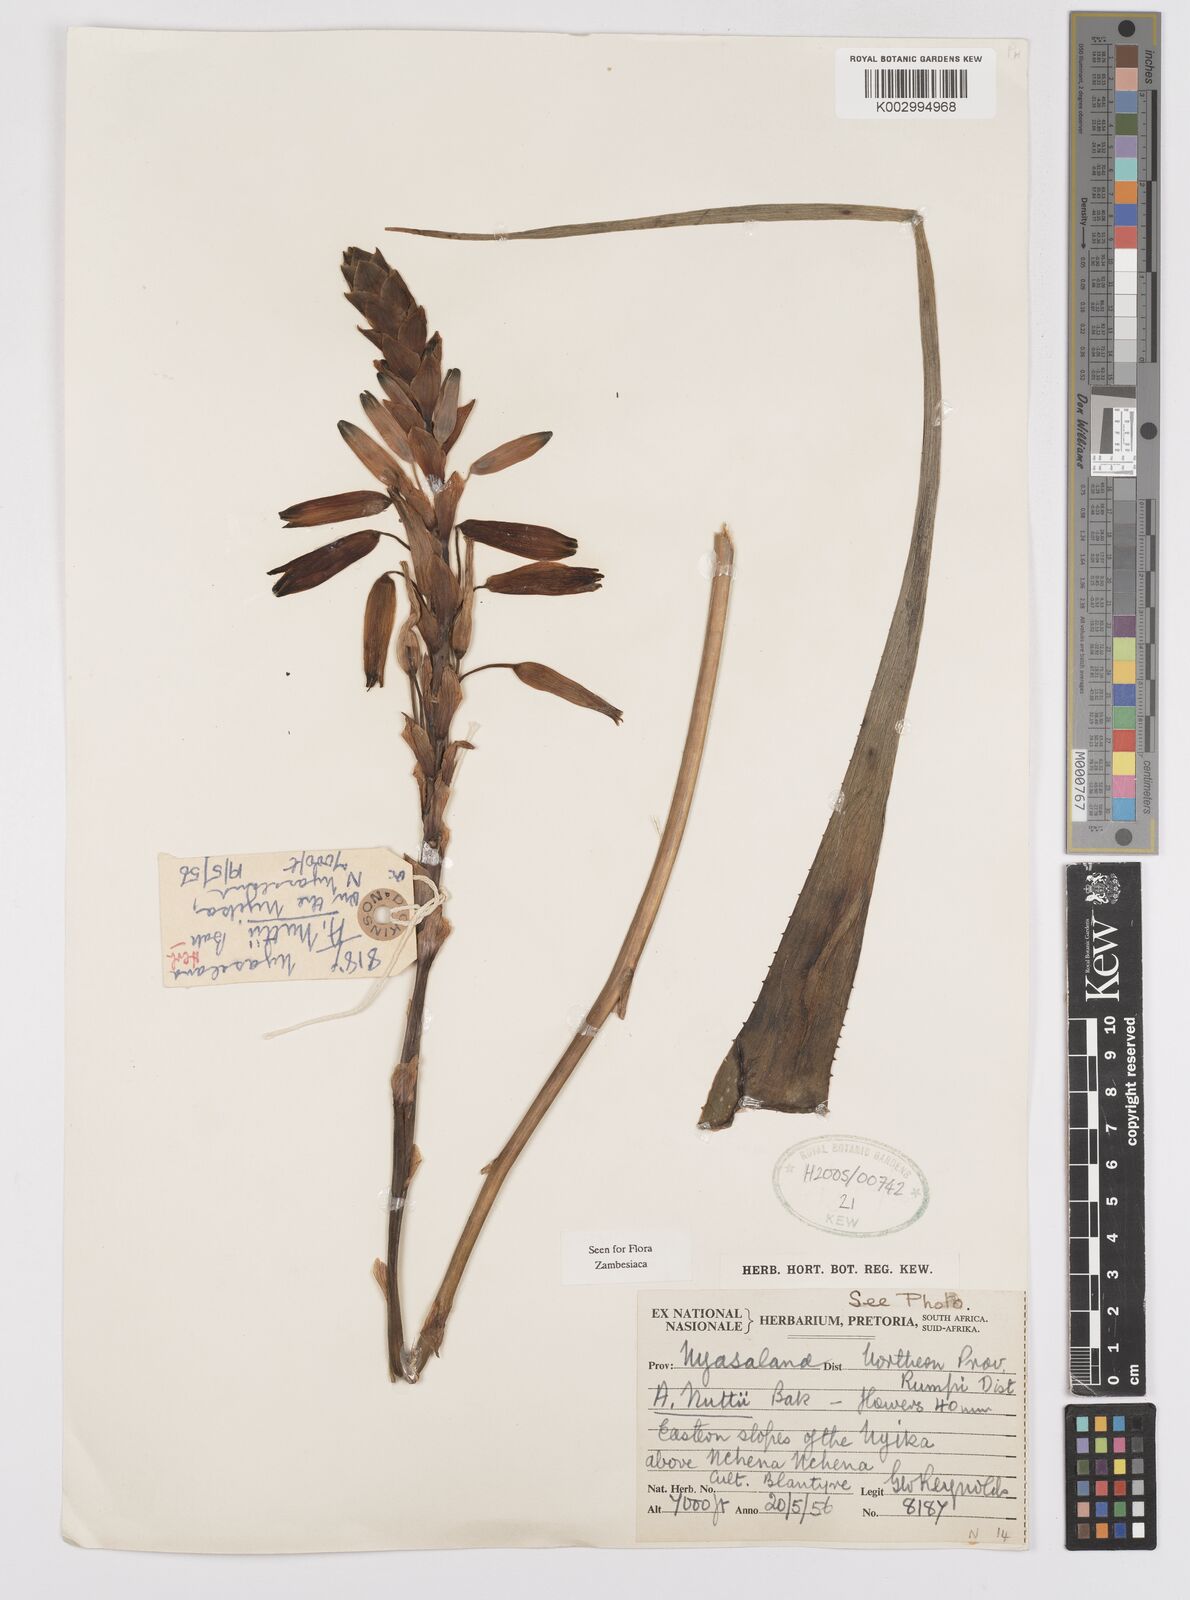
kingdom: Plantae
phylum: Tracheophyta
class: Liliopsida
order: Asparagales
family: Asphodelaceae
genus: Aloe
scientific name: Aloe nuttii
